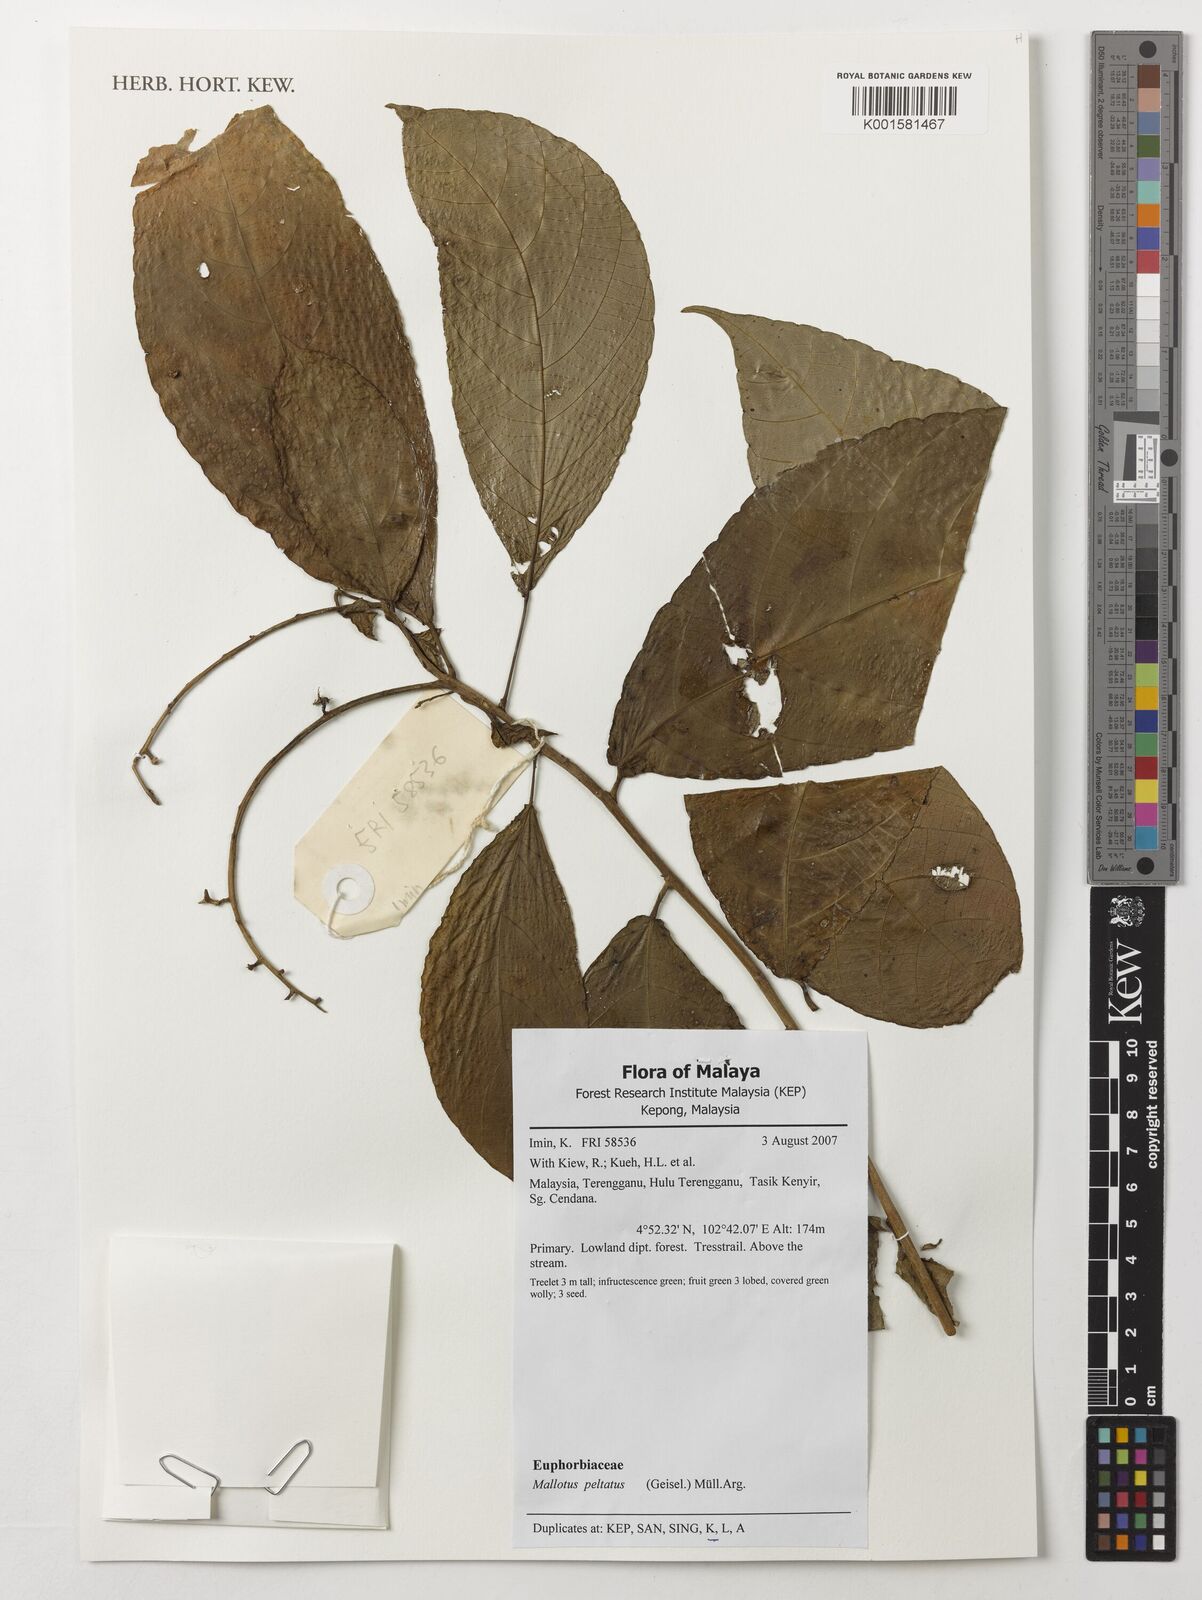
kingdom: Plantae
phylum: Tracheophyta
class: Magnoliopsida
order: Malpighiales
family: Euphorbiaceae
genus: Mallotus
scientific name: Mallotus peltatus
